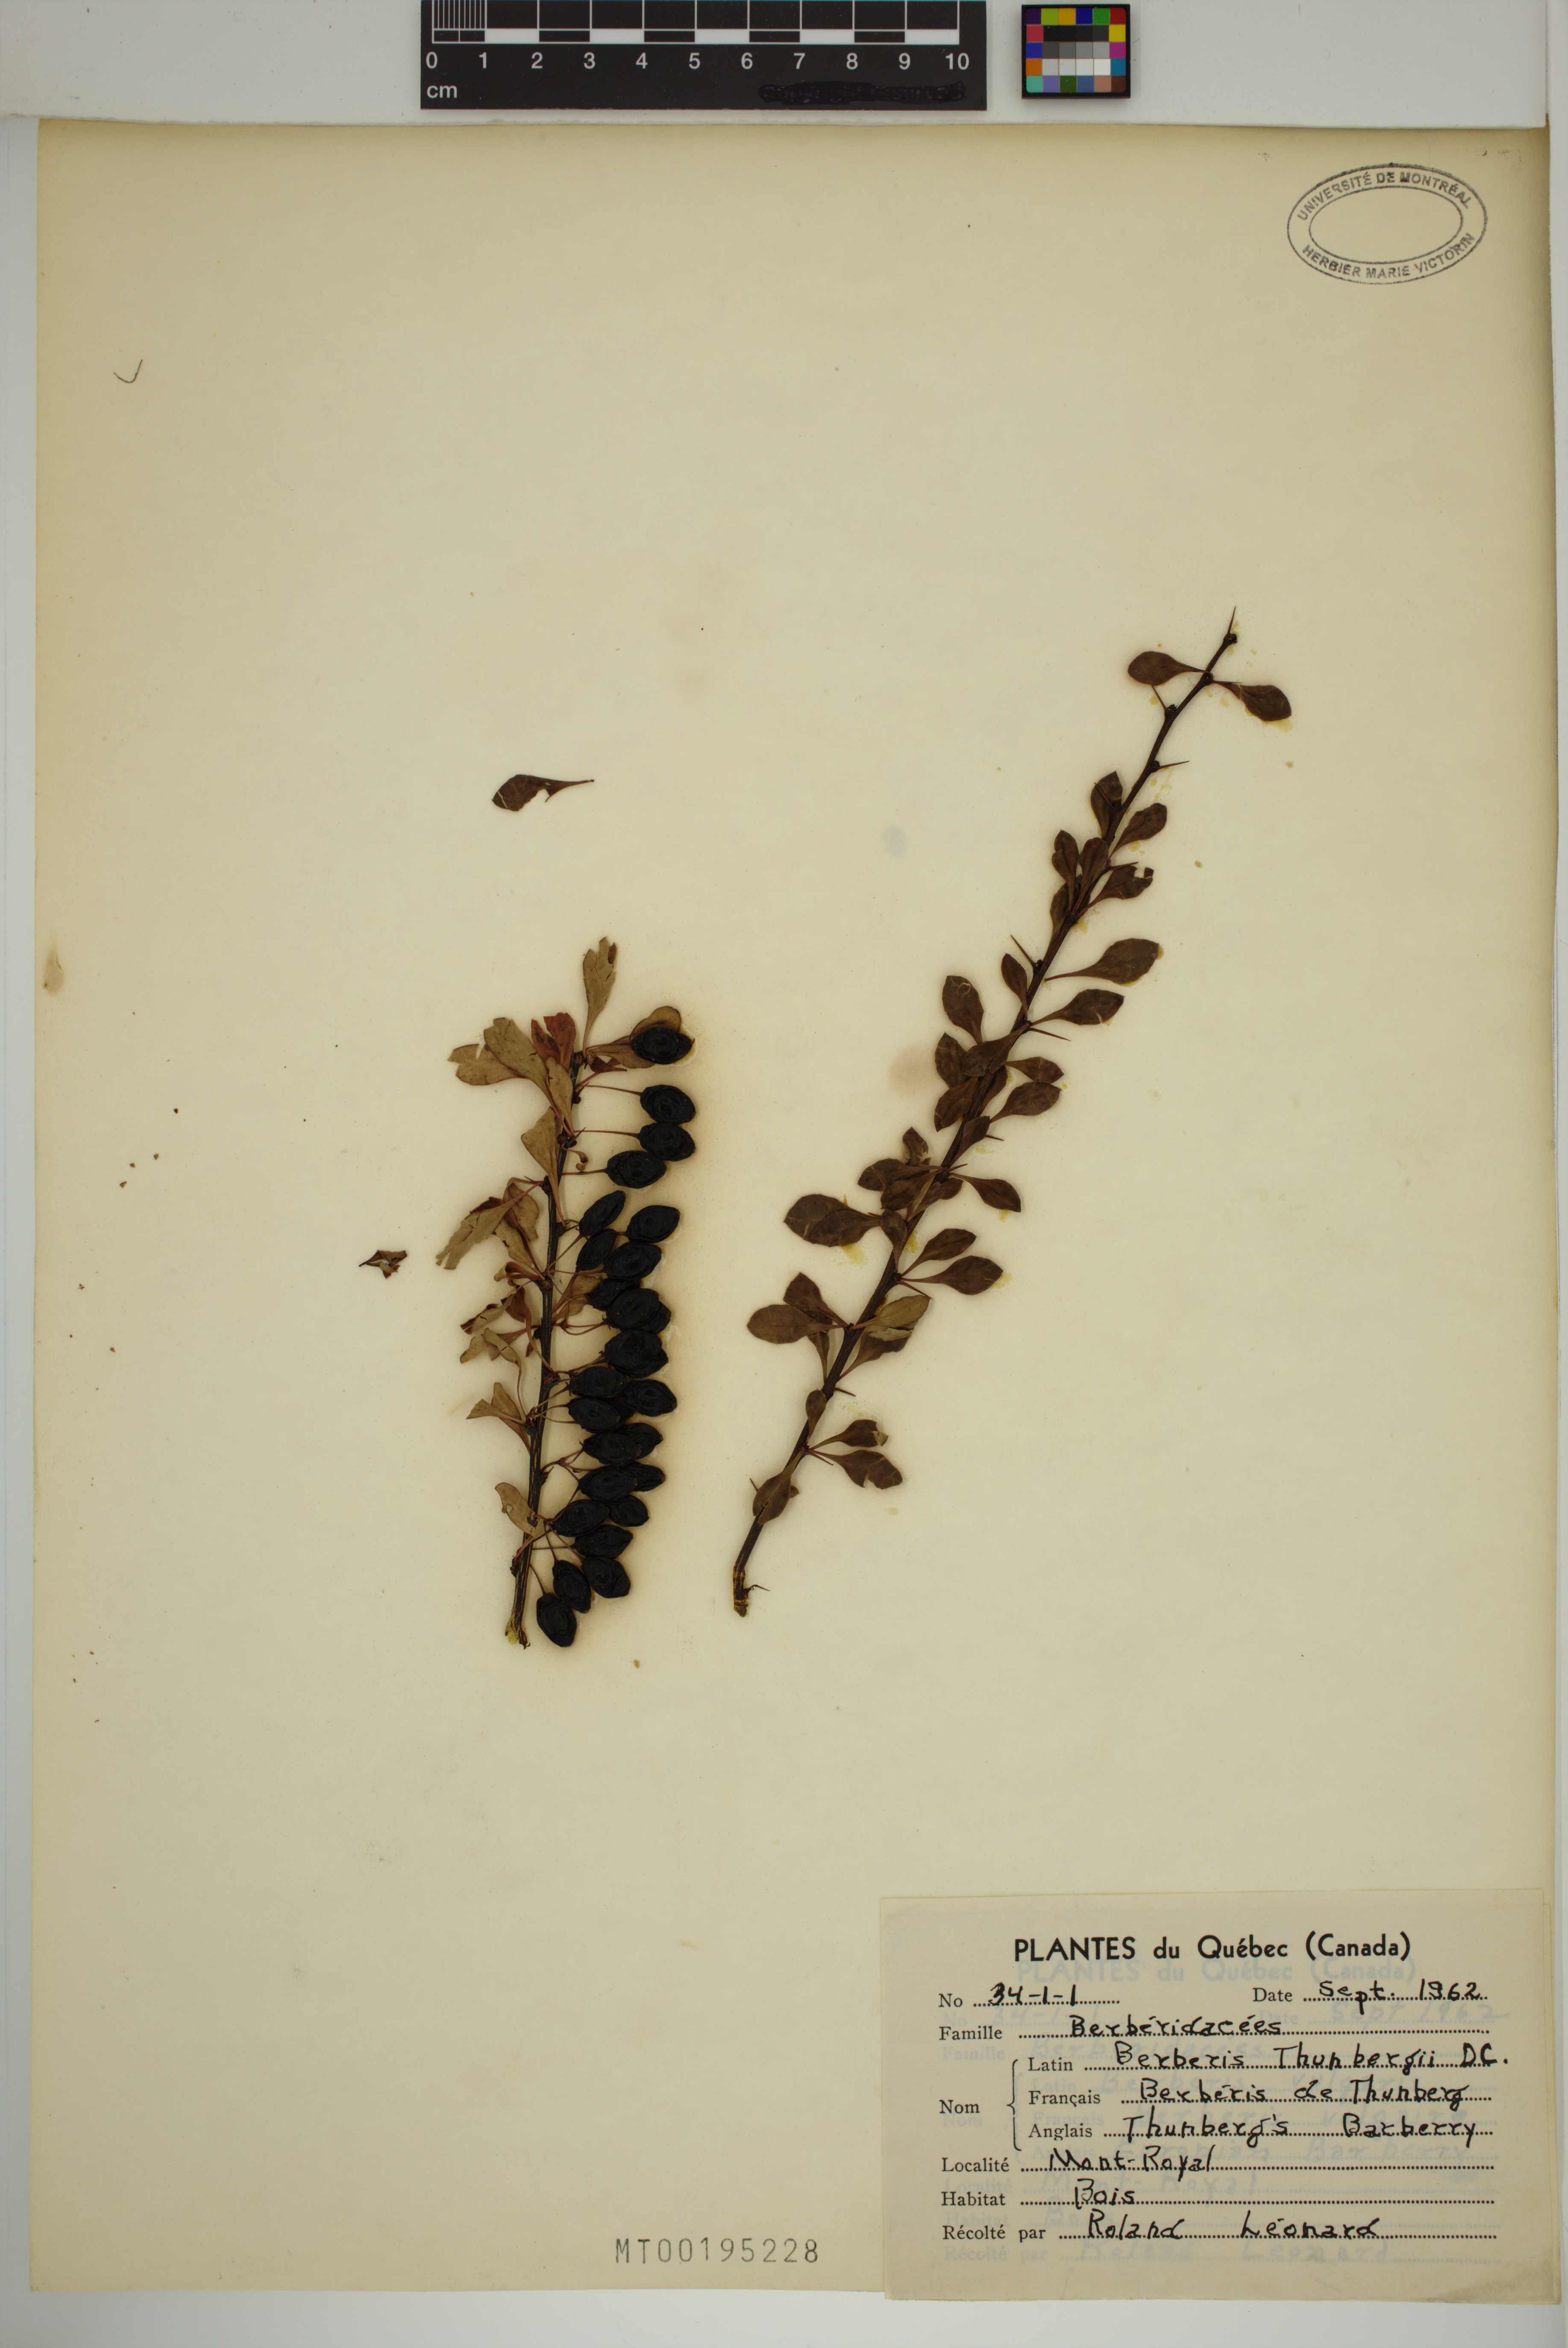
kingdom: Plantae
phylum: Tracheophyta
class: Magnoliopsida
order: Ranunculales
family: Berberidaceae
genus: Berberis
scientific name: Berberis thunbergii
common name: Japanese barberry
